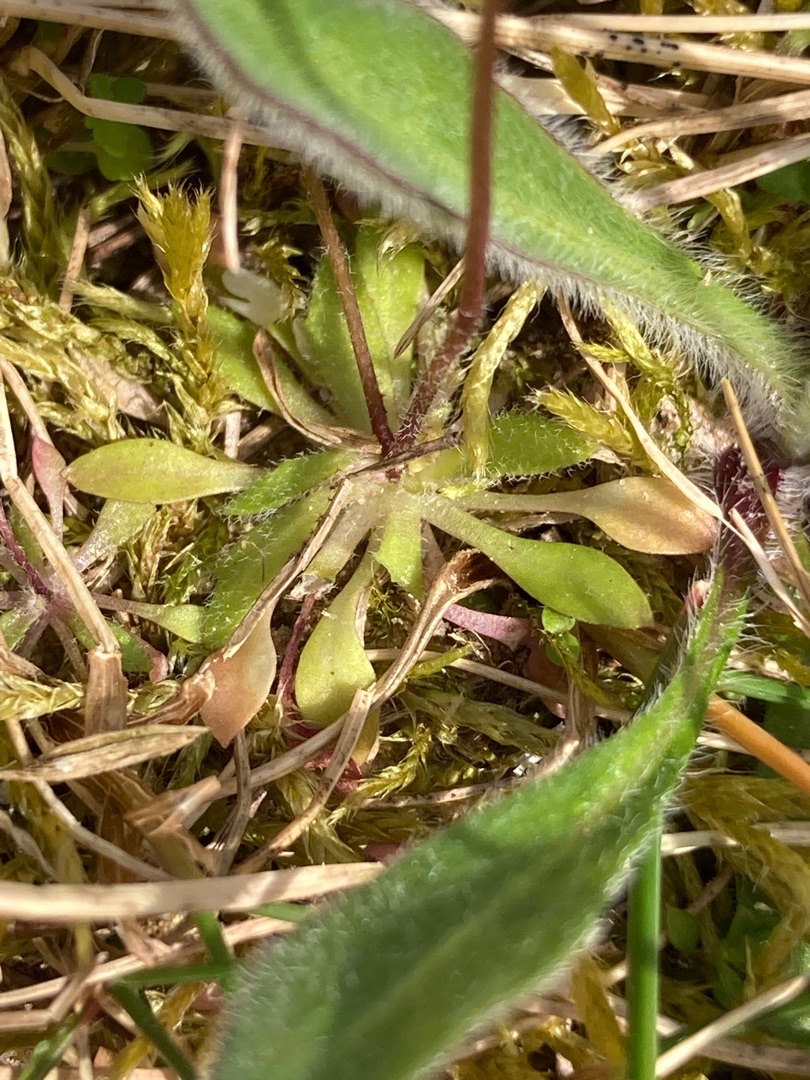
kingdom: Plantae
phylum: Tracheophyta
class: Magnoliopsida
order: Brassicales
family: Brassicaceae
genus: Draba
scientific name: Draba verna
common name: Vår-gæslingeblomst
